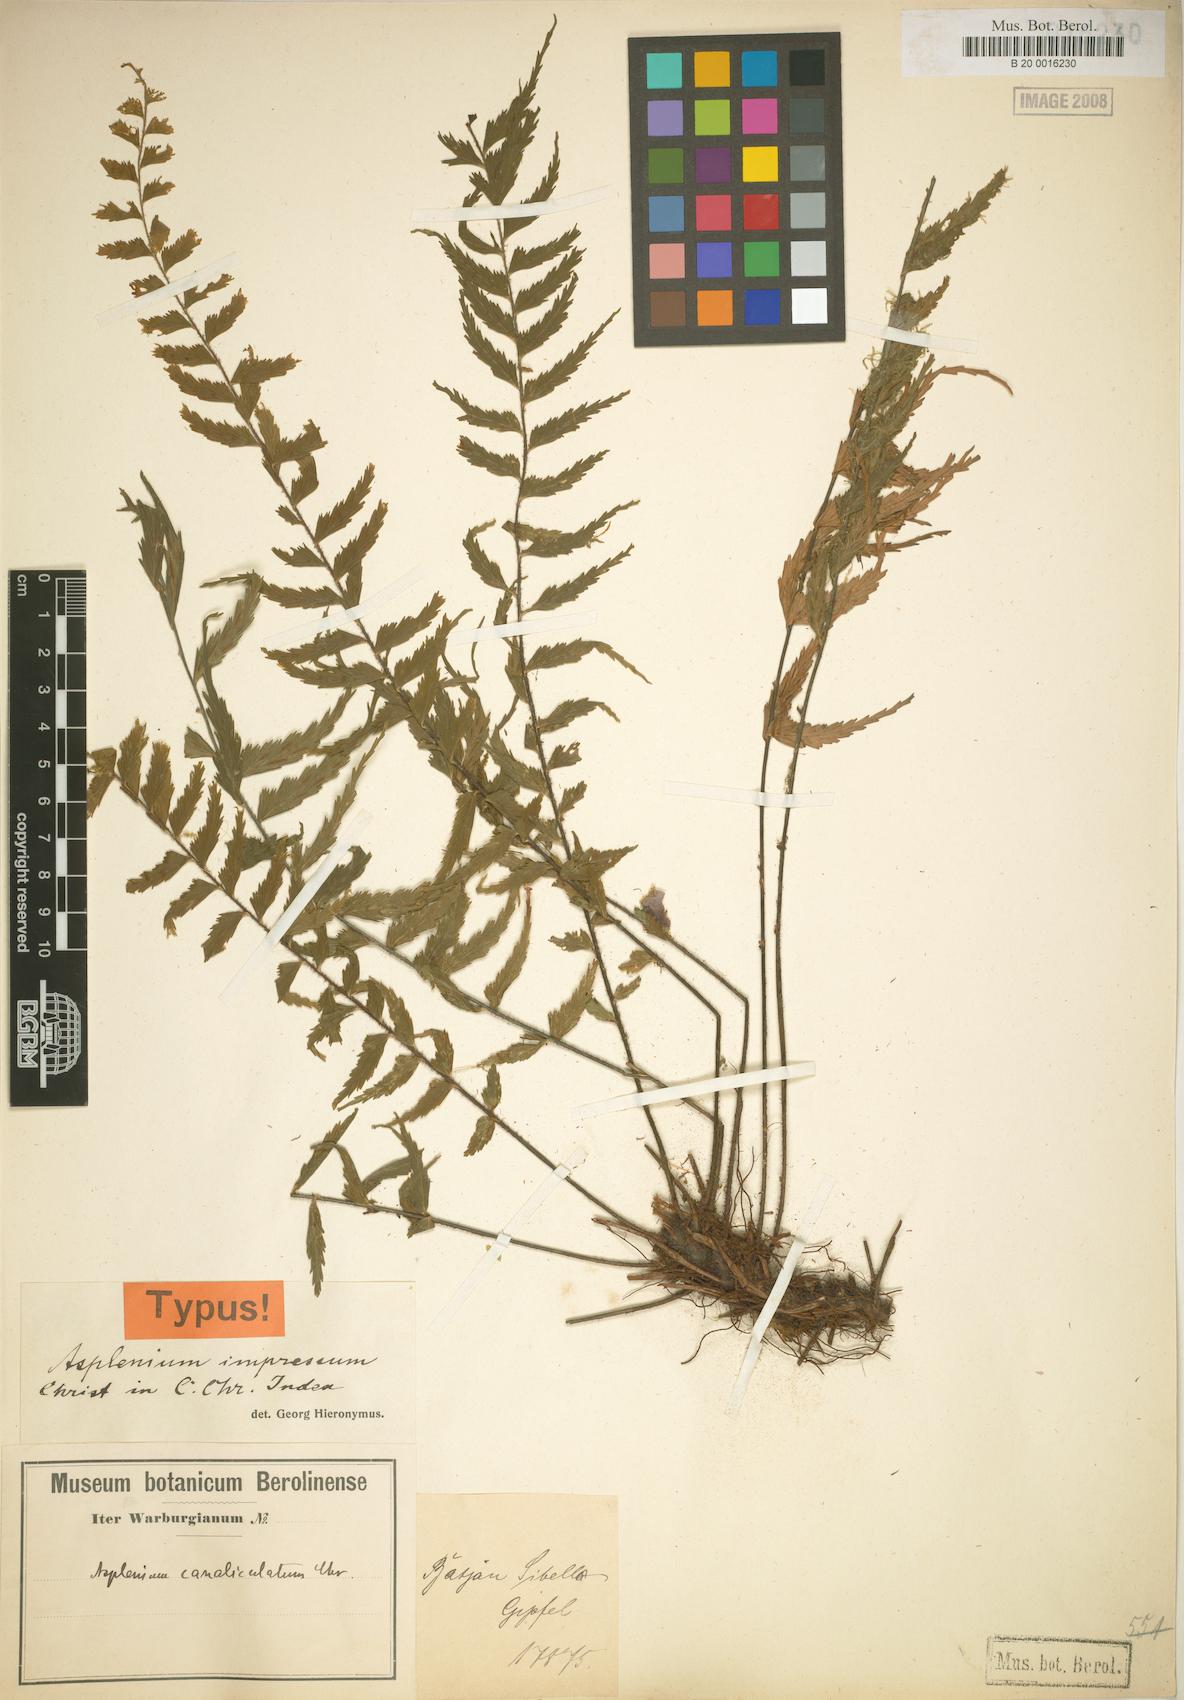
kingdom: Plantae
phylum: Tracheophyta
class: Polypodiopsida
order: Polypodiales
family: Aspleniaceae
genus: Asplenium
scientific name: Asplenium simile
